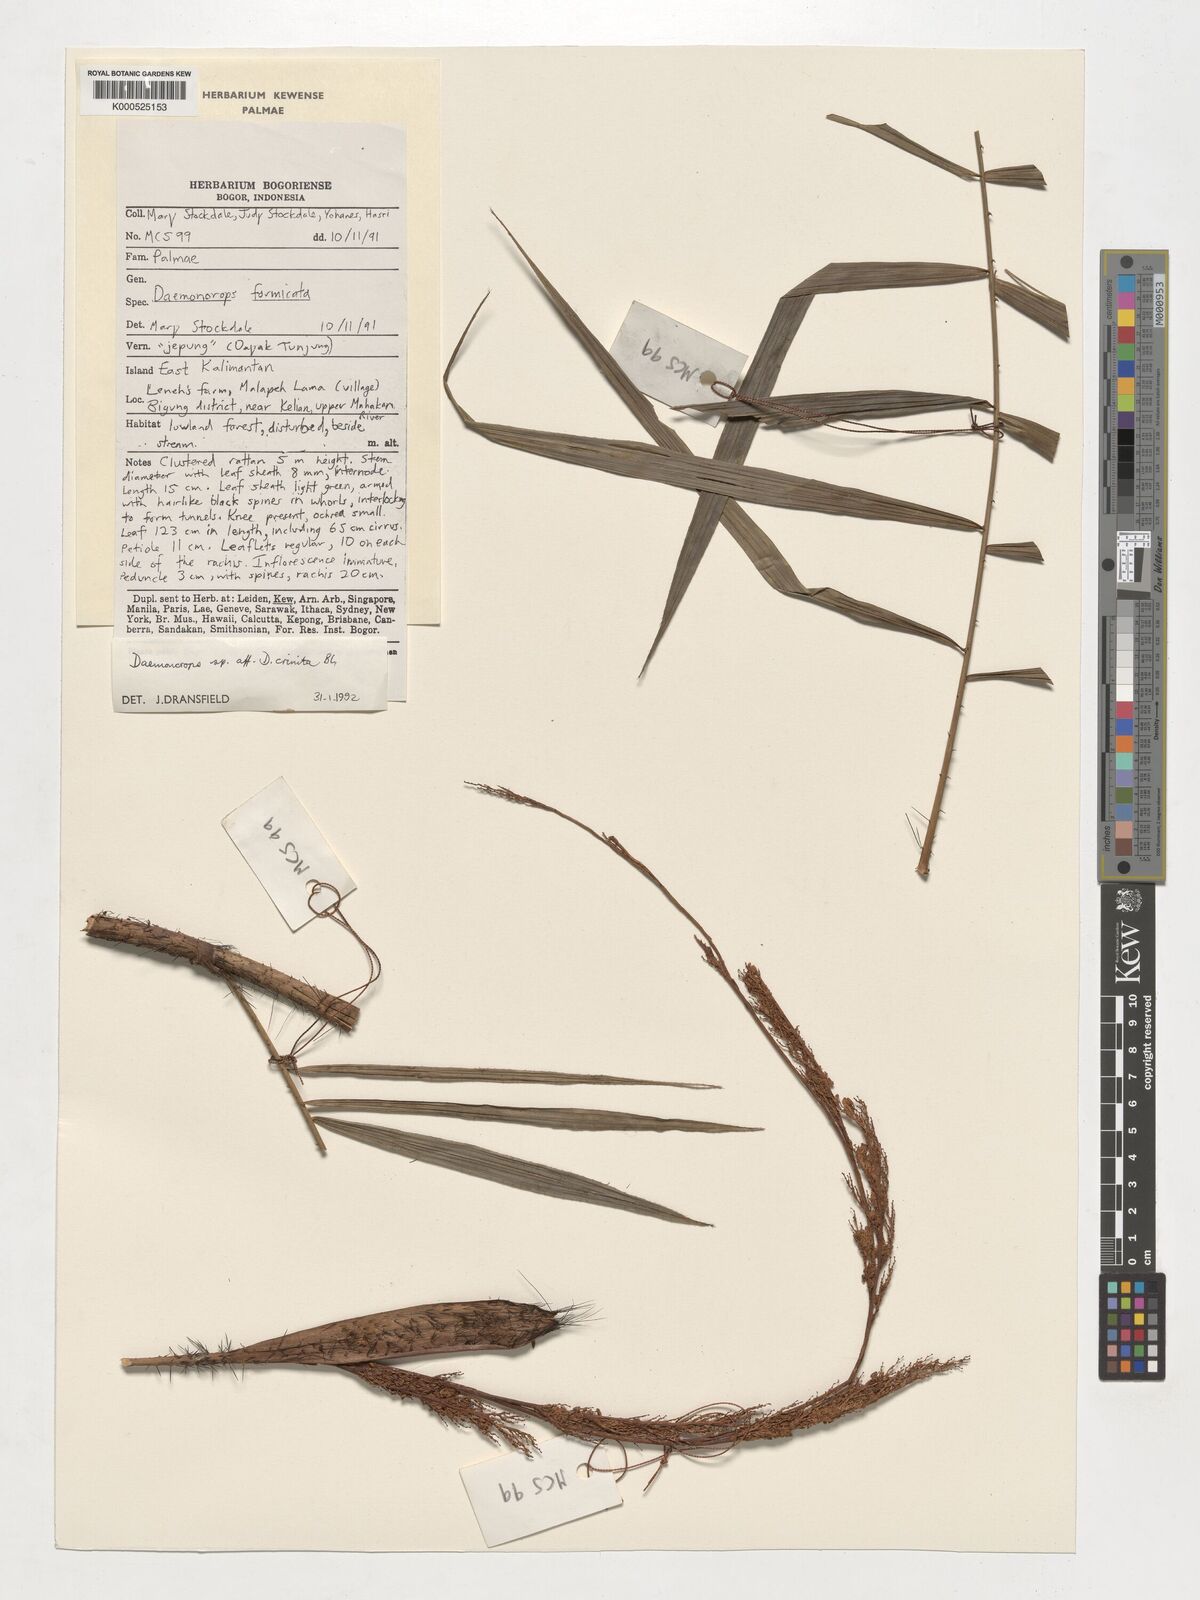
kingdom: Plantae
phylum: Tracheophyta
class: Liliopsida
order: Arecales
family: Arecaceae
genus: Calamus
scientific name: Calamus crinitus
